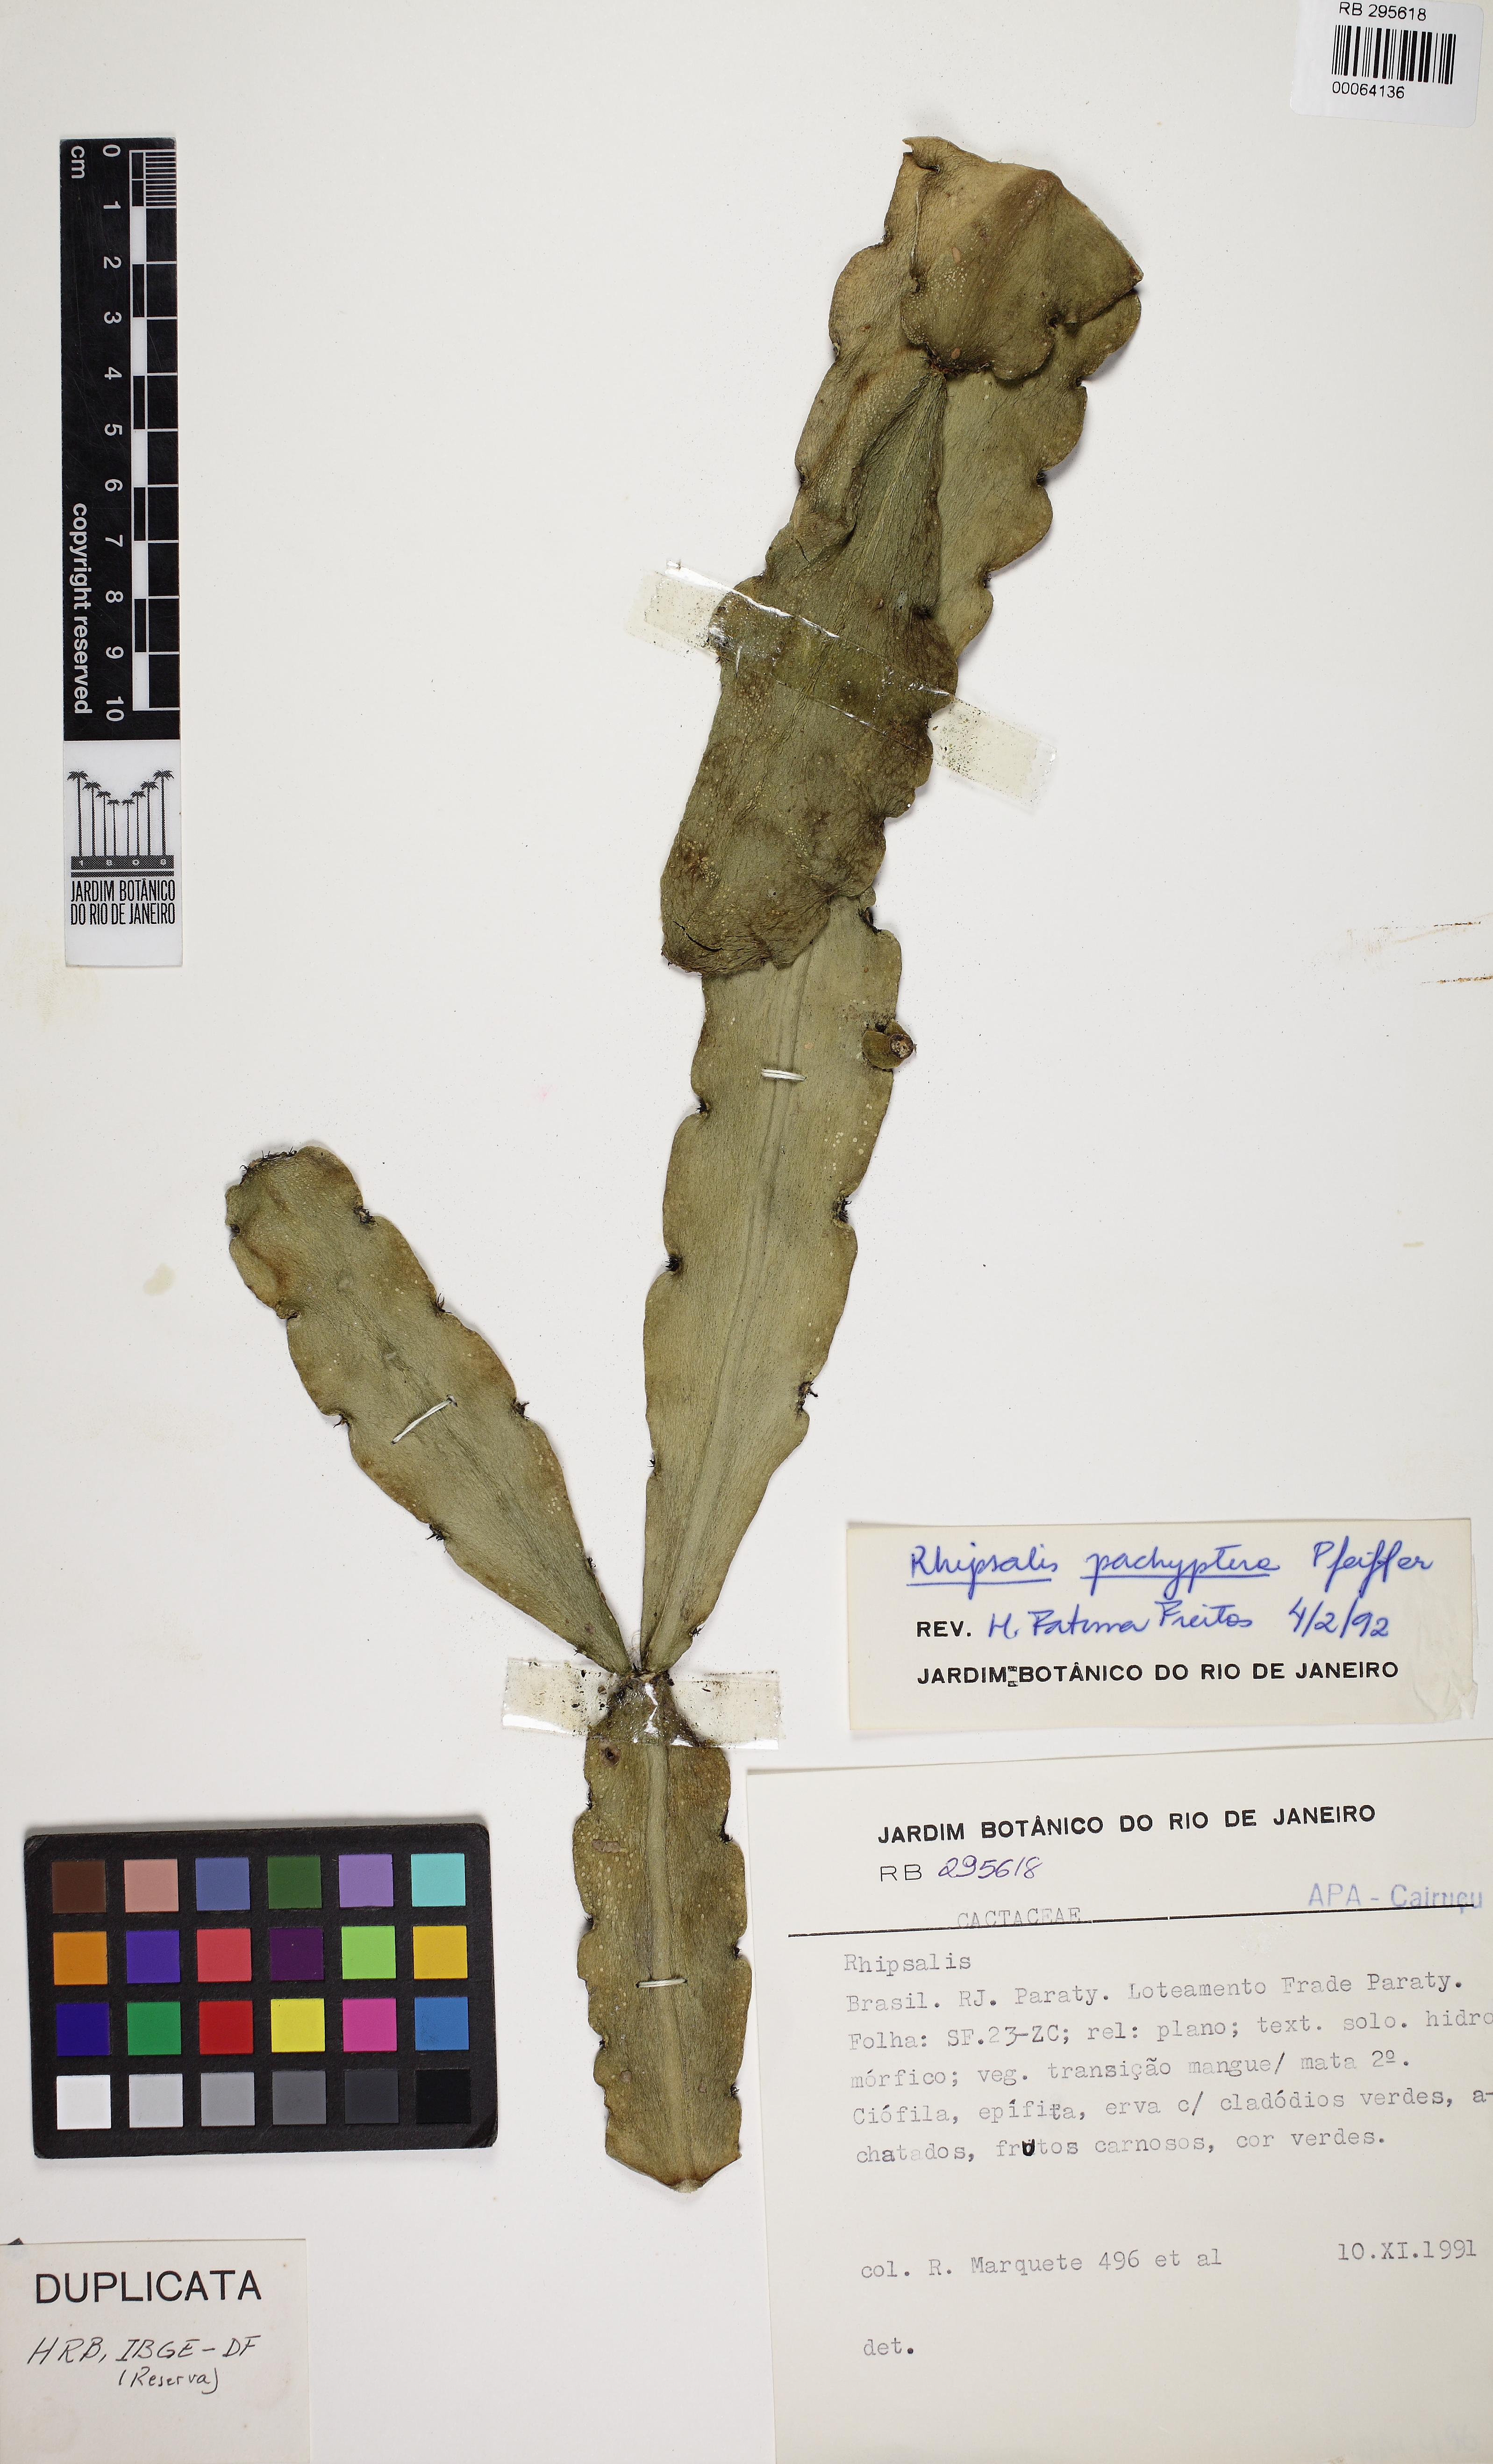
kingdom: Plantae
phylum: Tracheophyta
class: Magnoliopsida
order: Caryophyllales
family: Cactaceae
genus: Rhipsalis
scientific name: Rhipsalis pachyptera
